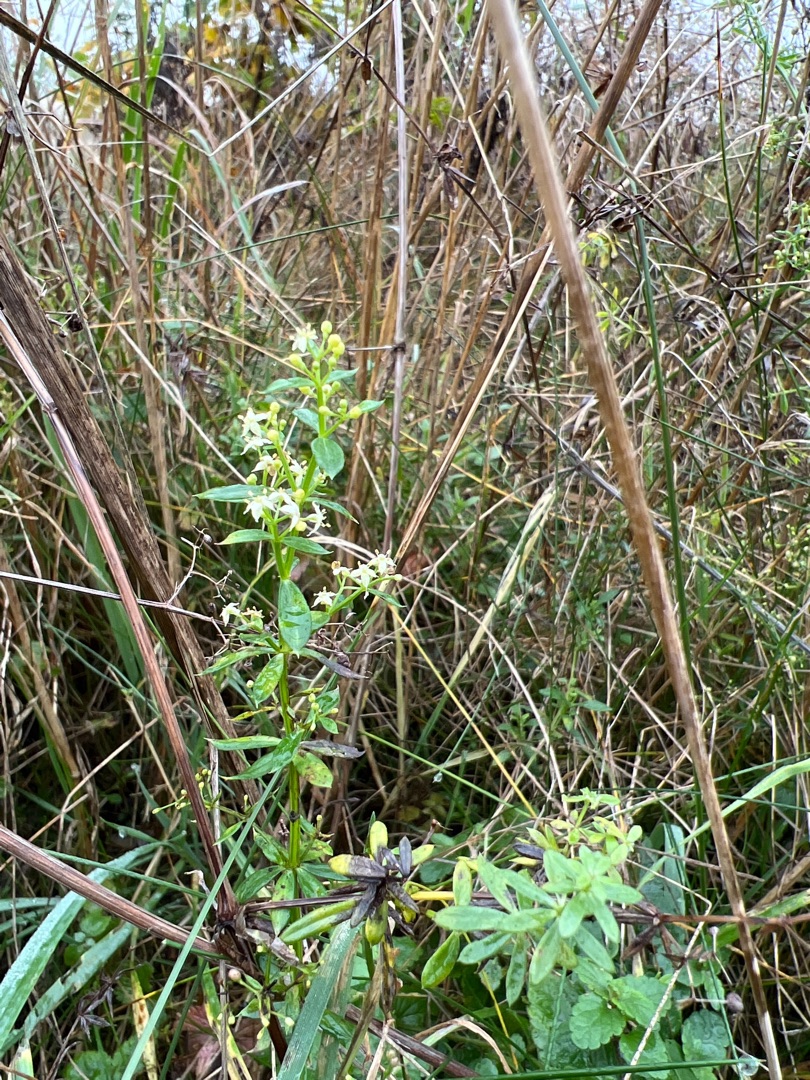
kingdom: Plantae
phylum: Tracheophyta
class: Magnoliopsida
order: Gentianales
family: Rubiaceae
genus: Galium
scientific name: Galium mollugo
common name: Hvid snerre
